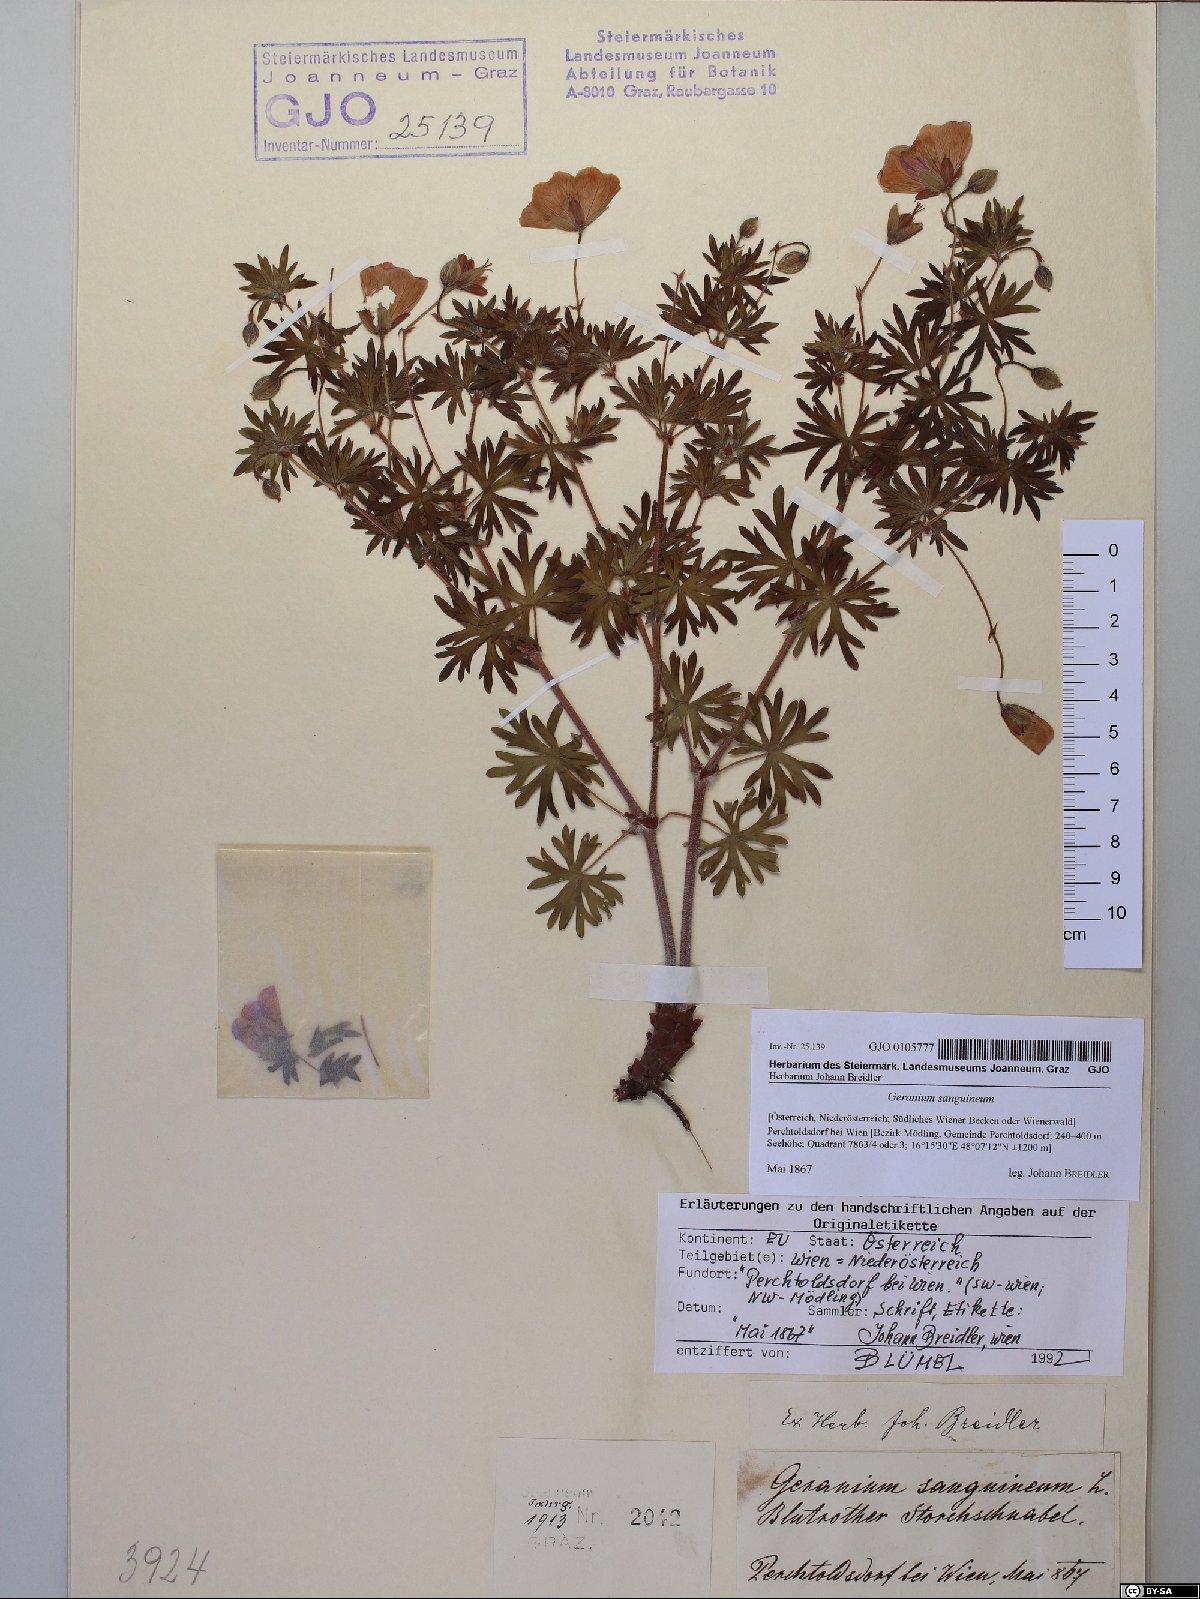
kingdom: Plantae
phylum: Tracheophyta
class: Magnoliopsida
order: Geraniales
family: Geraniaceae
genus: Geranium
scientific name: Geranium sanguineum
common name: Bloody crane's-bill
